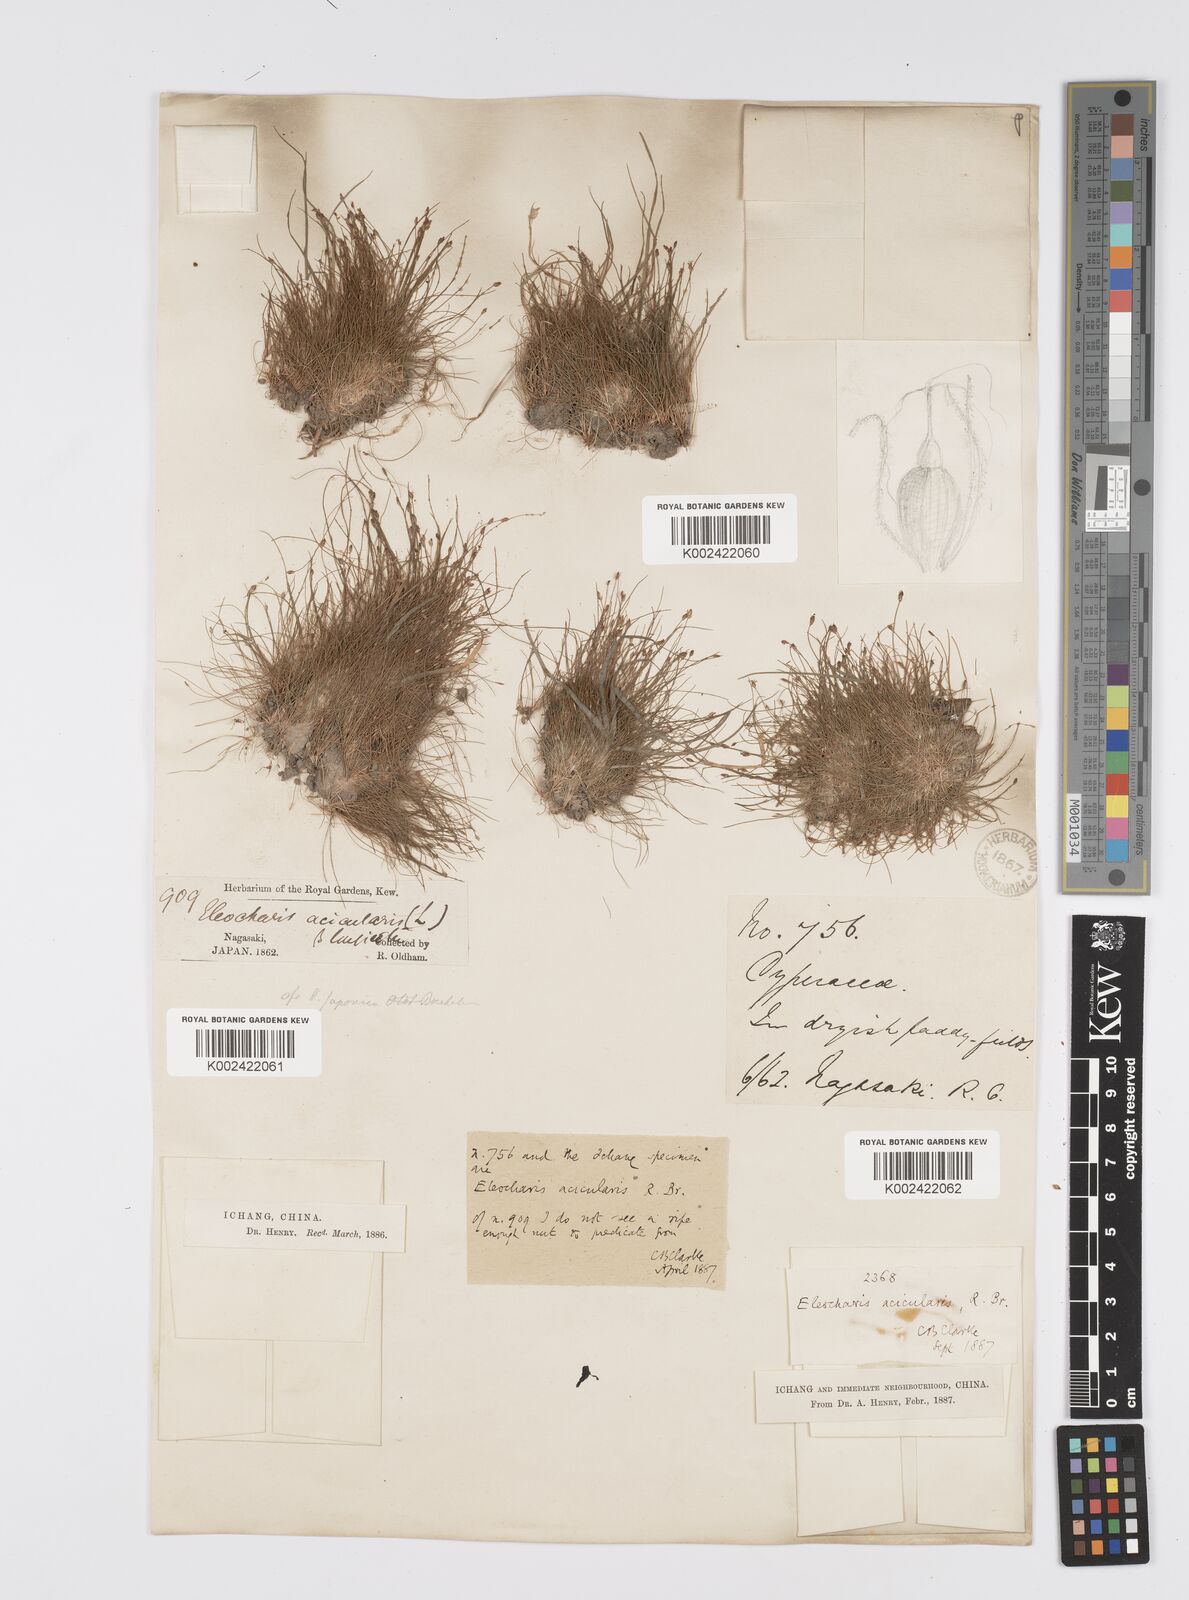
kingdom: Plantae
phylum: Tracheophyta
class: Liliopsida
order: Poales
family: Cyperaceae
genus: Eleocharis
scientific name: Eleocharis acicularis
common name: Needle spike-rush
